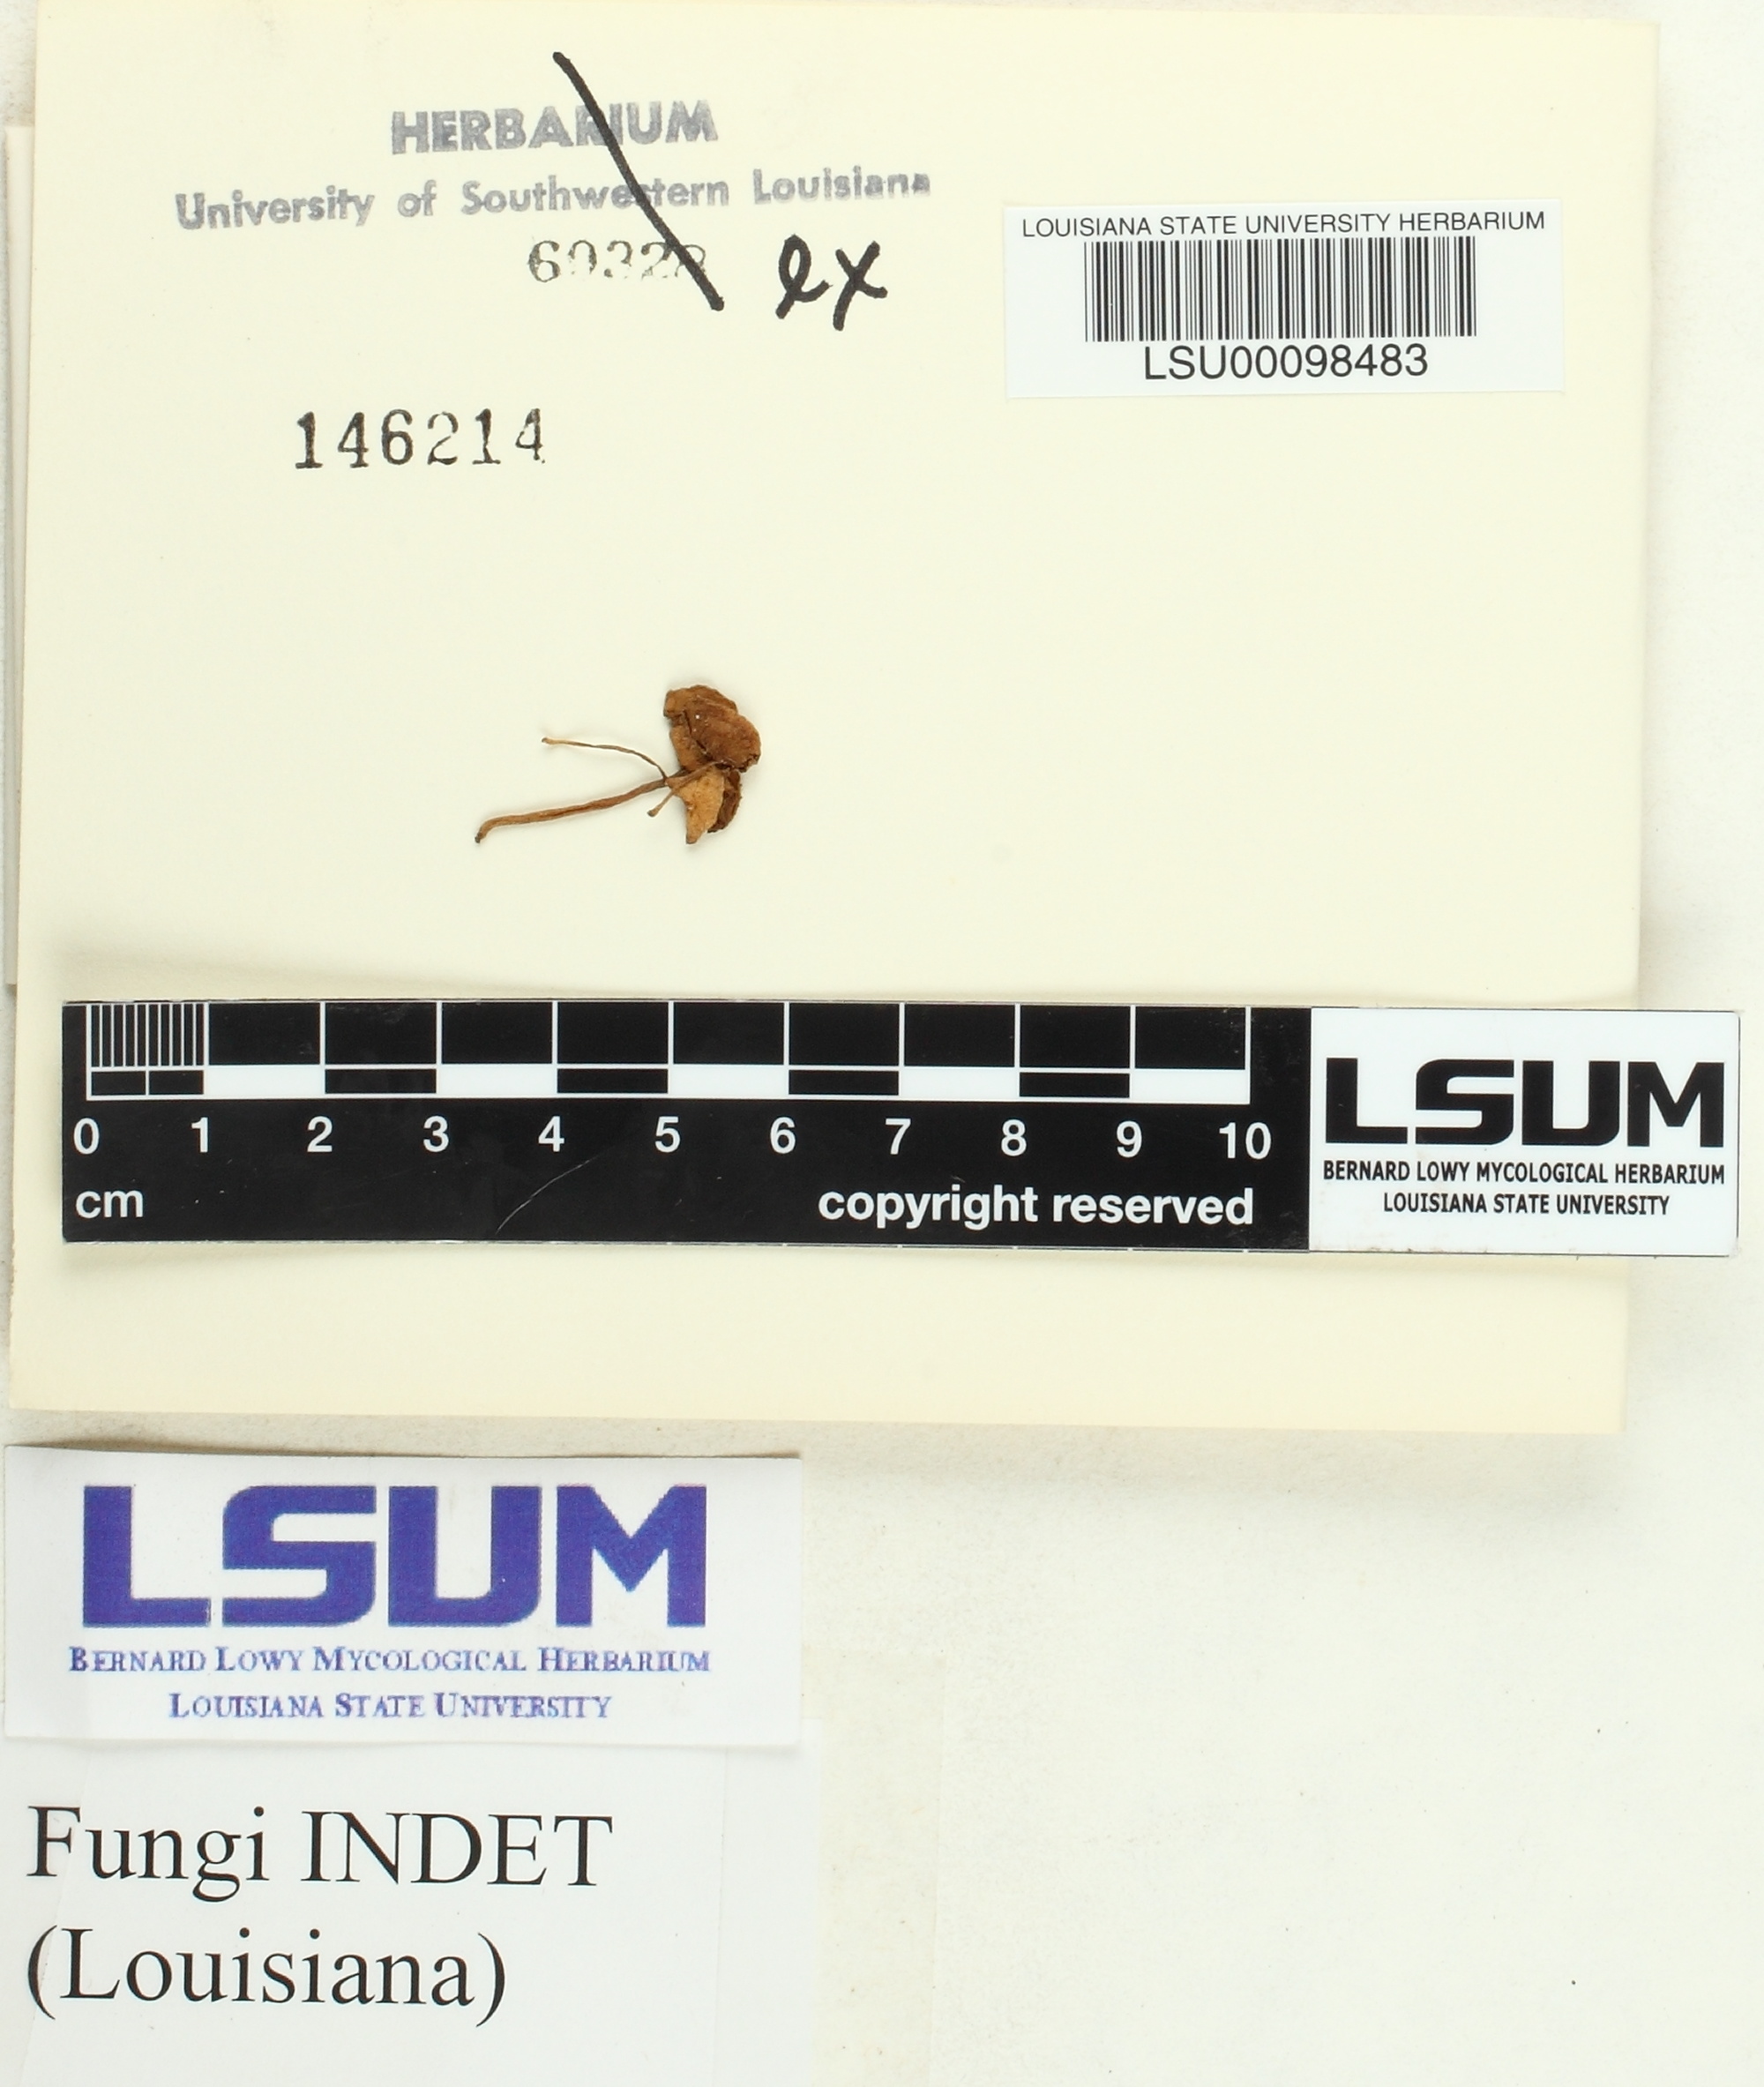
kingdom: Fungi
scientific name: Fungi
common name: Fungi
